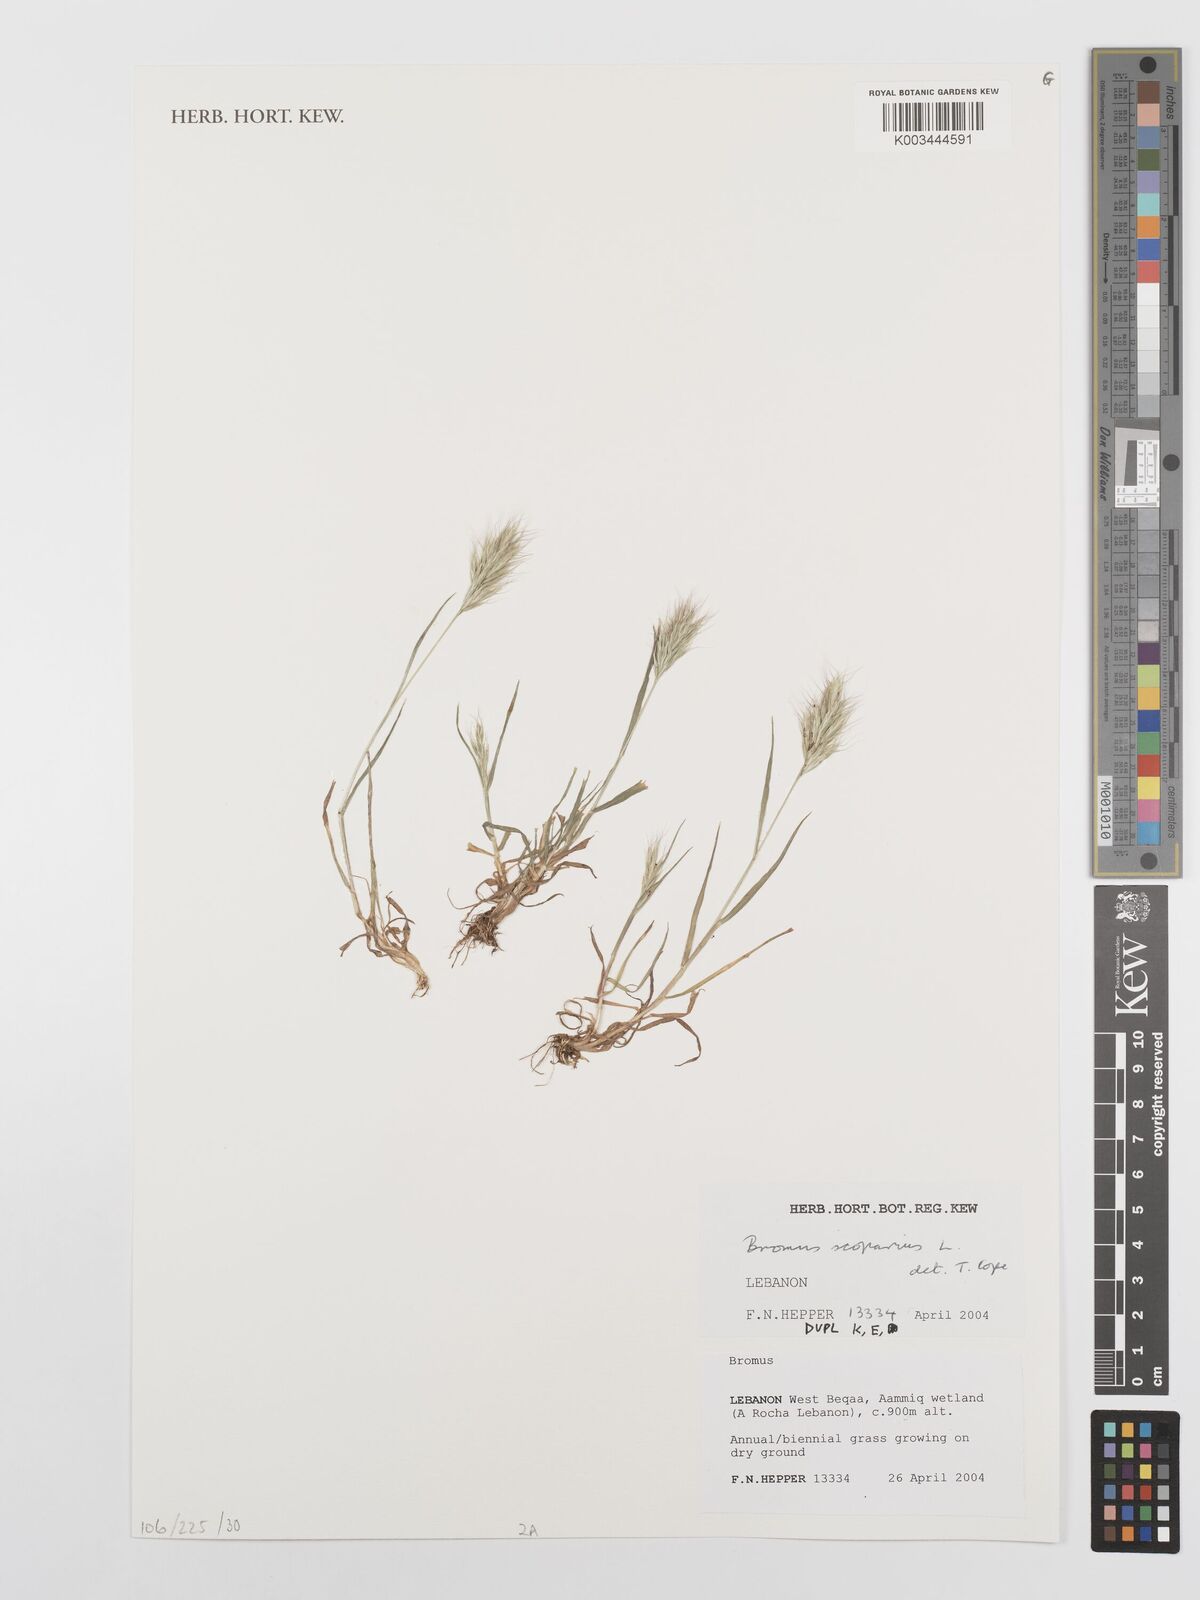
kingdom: Plantae
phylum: Tracheophyta
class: Liliopsida
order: Poales
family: Poaceae
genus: Bromus
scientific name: Bromus scoparius
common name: Broom brome
